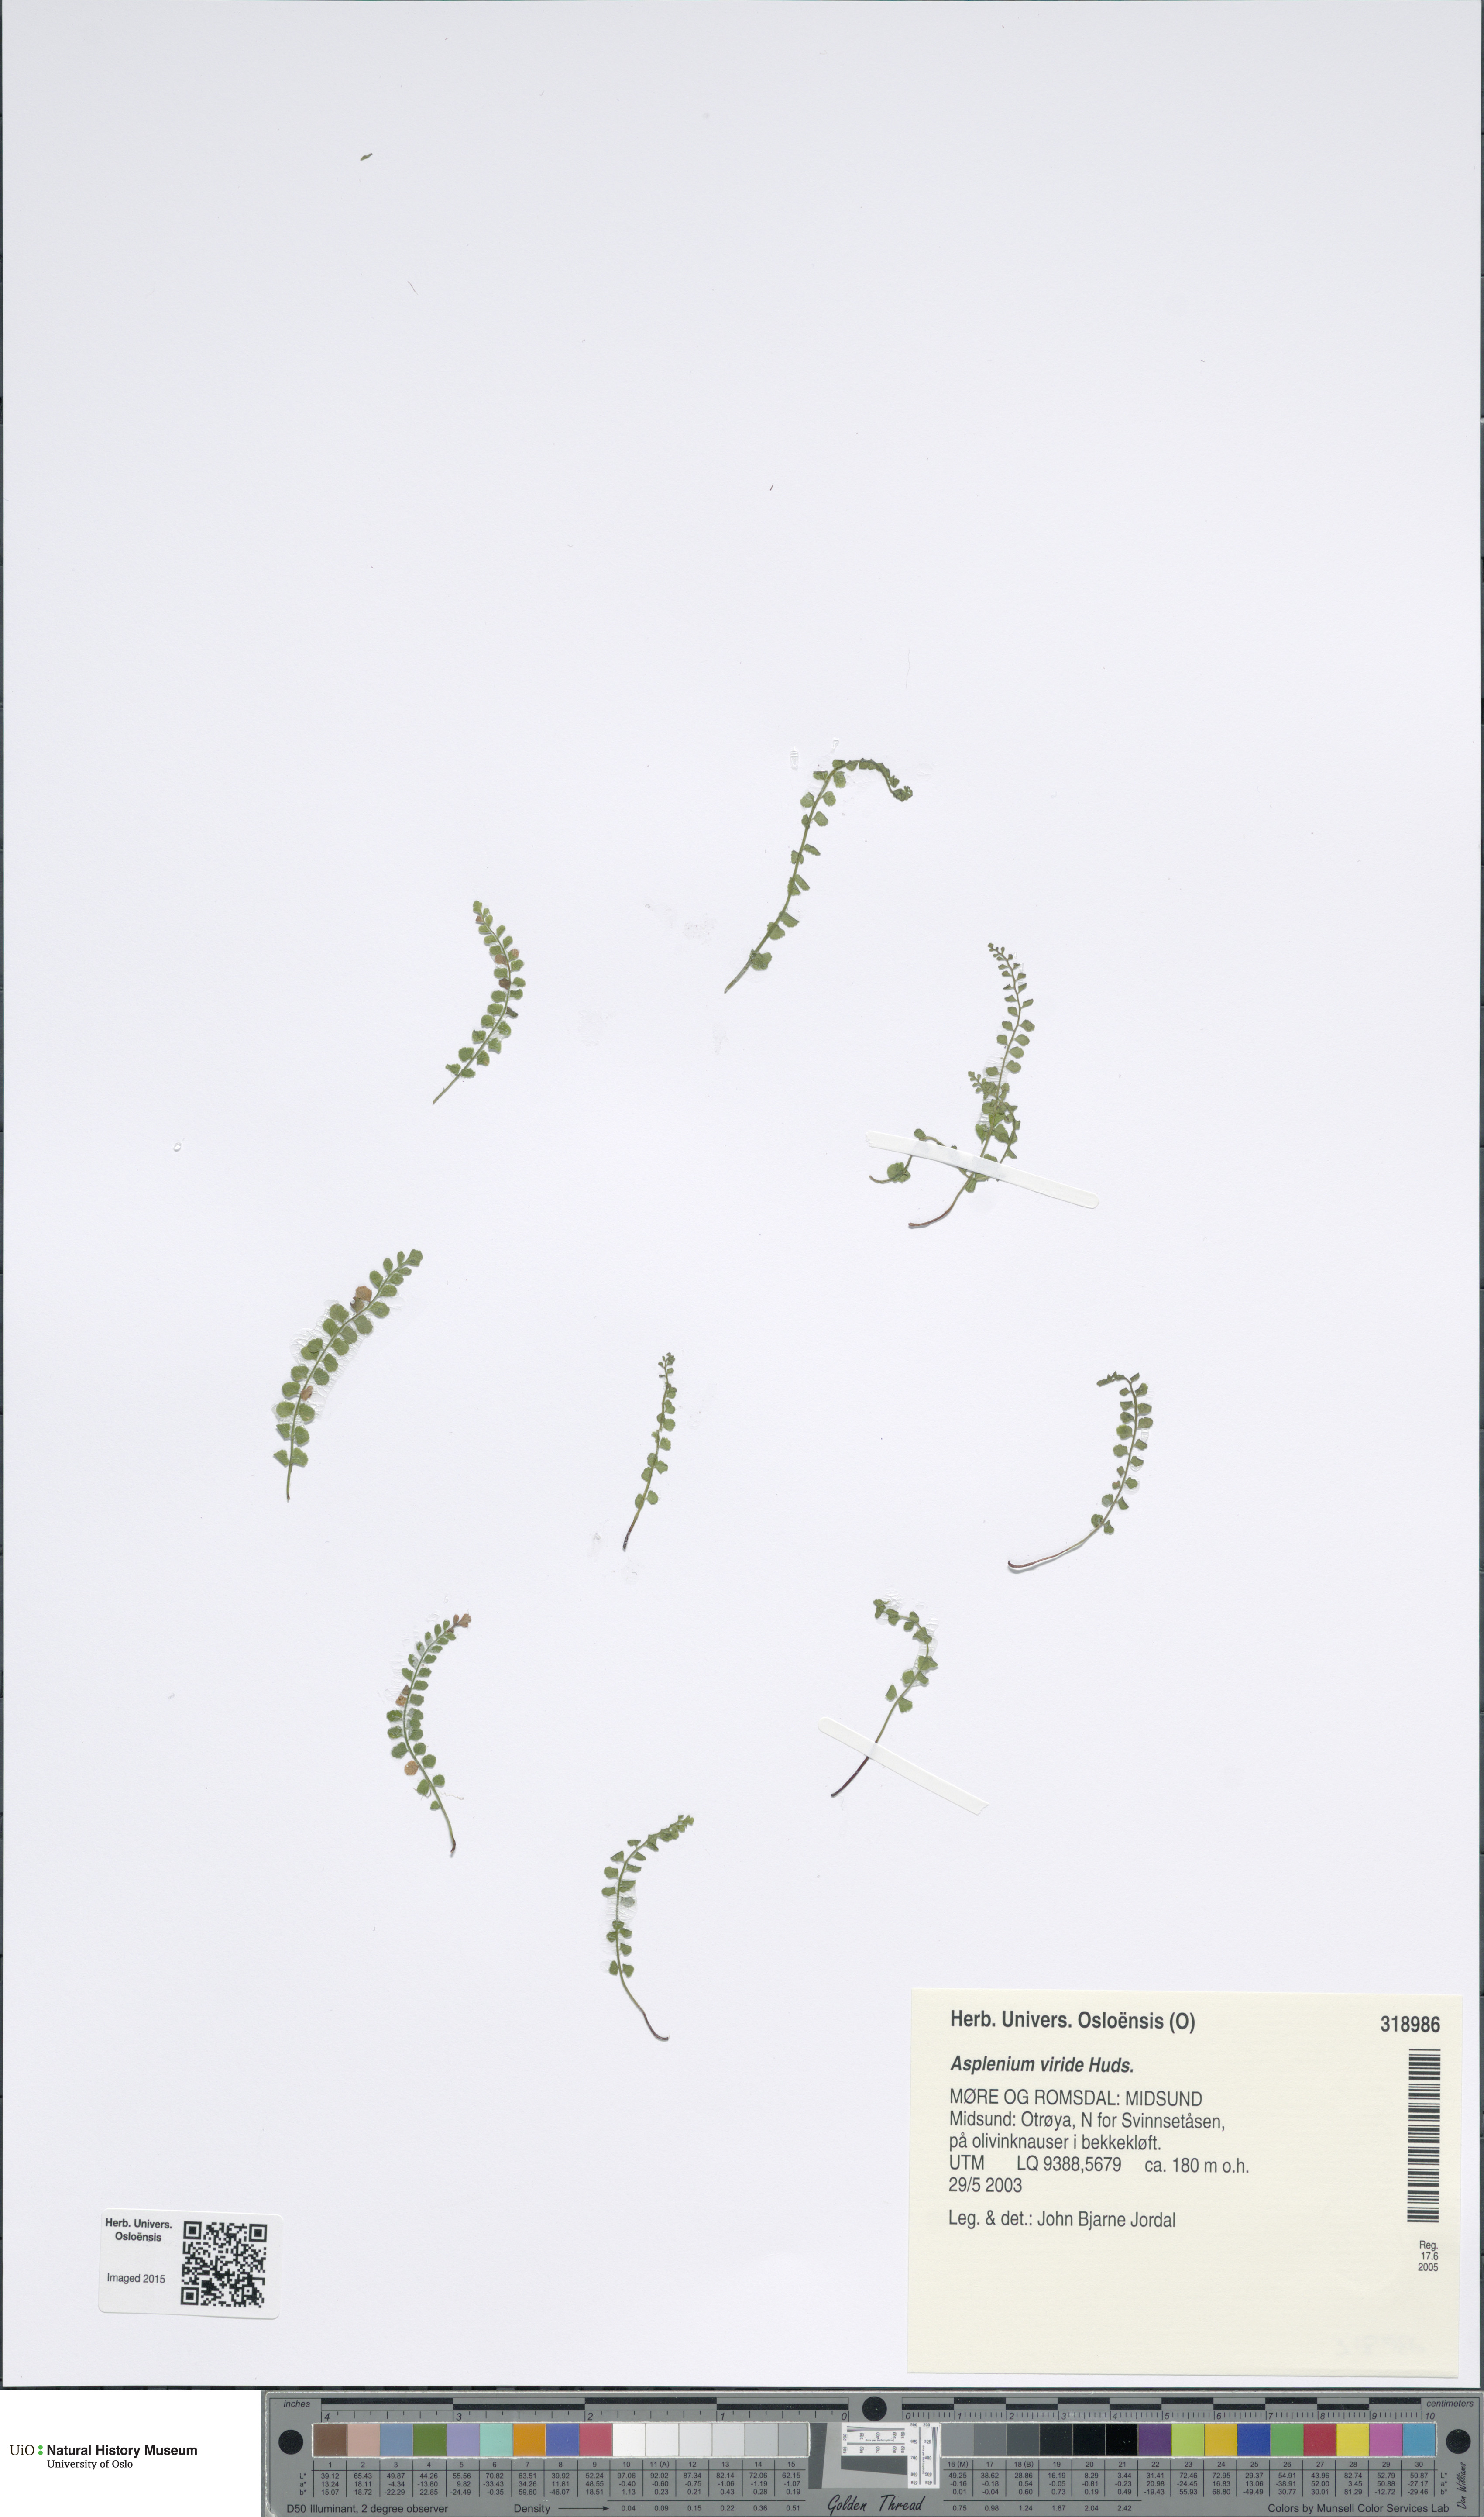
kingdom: Plantae
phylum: Tracheophyta
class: Polypodiopsida
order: Polypodiales
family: Aspleniaceae
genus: Asplenium
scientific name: Asplenium viride
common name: Green spleenwort
